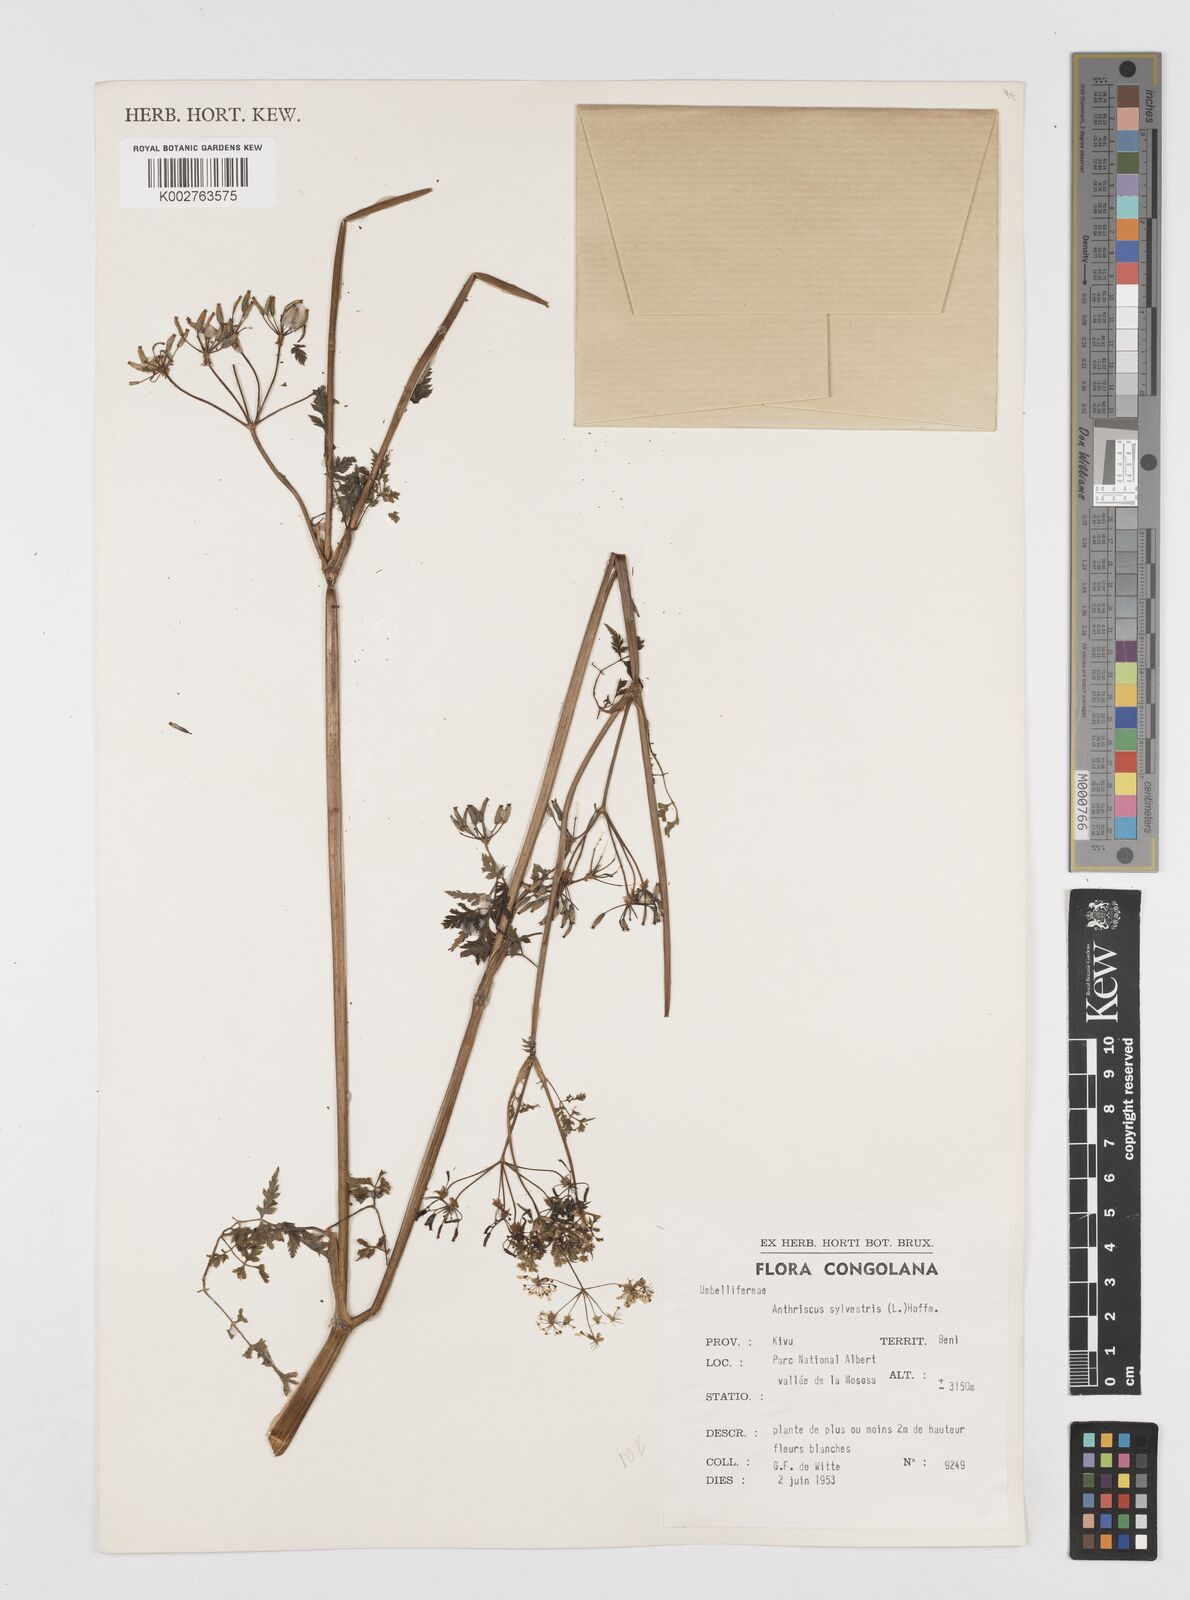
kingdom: Plantae
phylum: Tracheophyta
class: Magnoliopsida
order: Apiales
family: Apiaceae
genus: Anthriscus
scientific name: Anthriscus sylvestris
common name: Cow parsley
